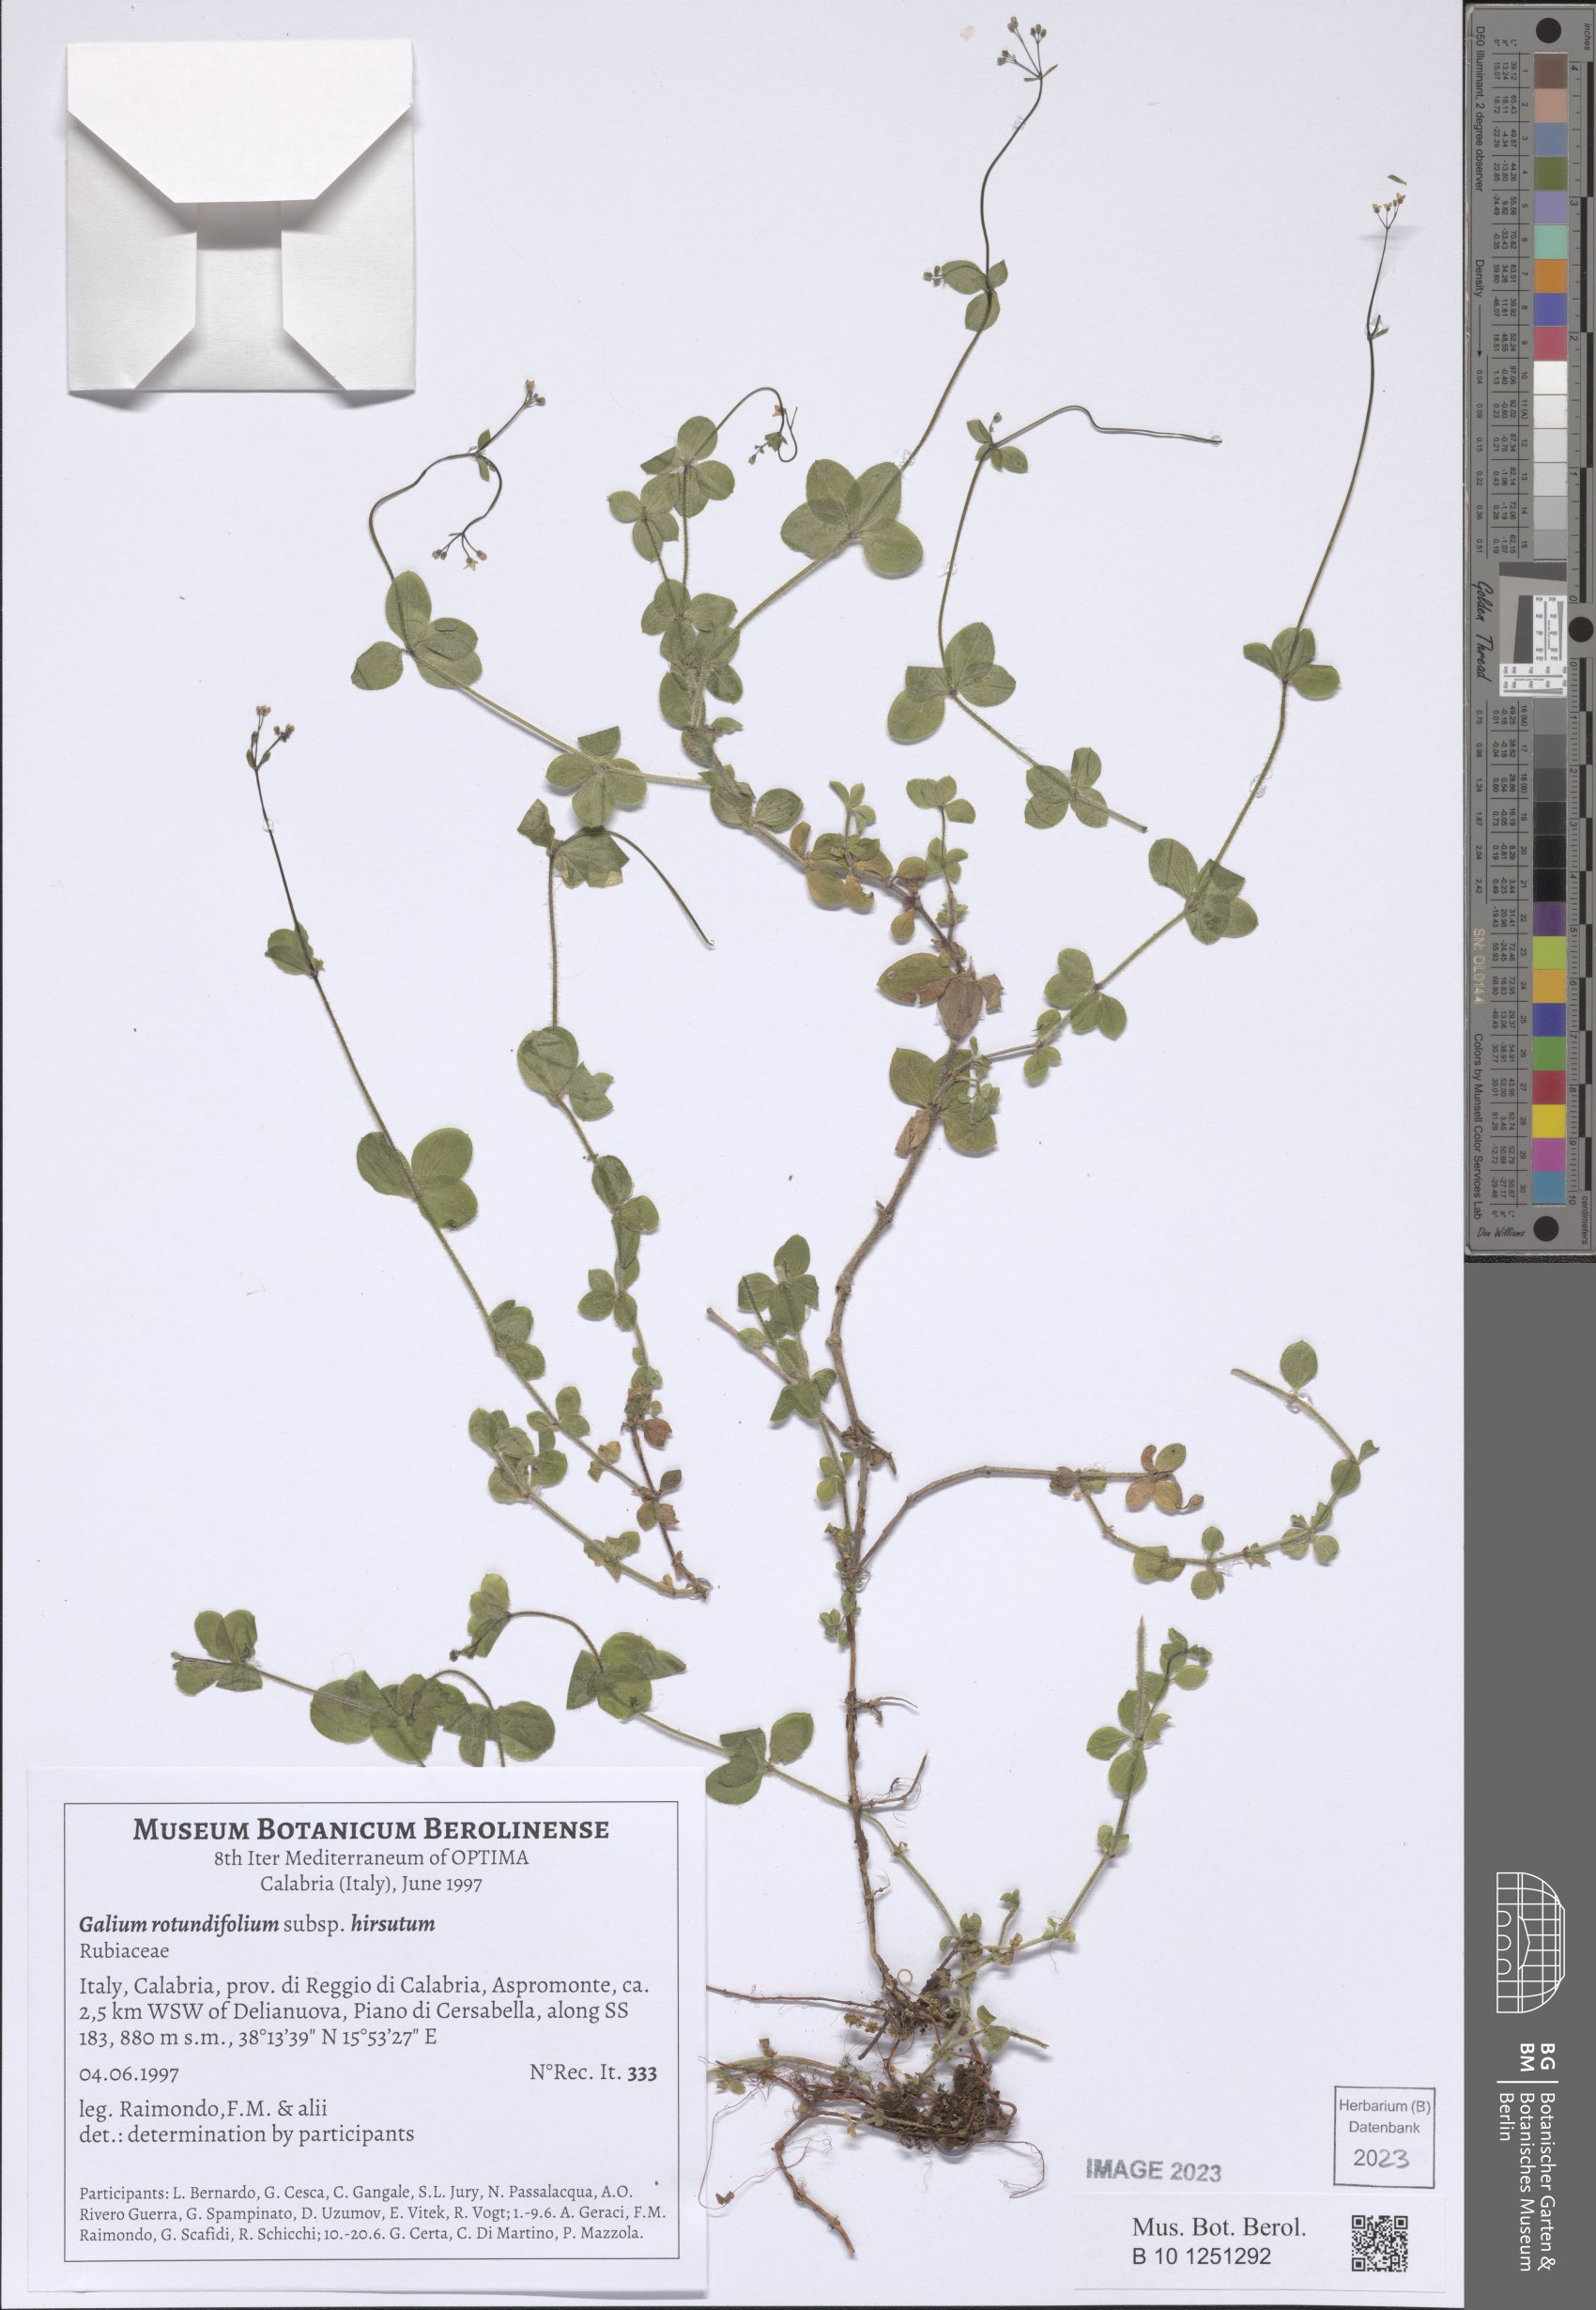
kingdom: Plantae
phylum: Tracheophyta
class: Magnoliopsida
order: Gentianales
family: Rubiaceae
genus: Galium
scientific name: Galium rotundifolium
